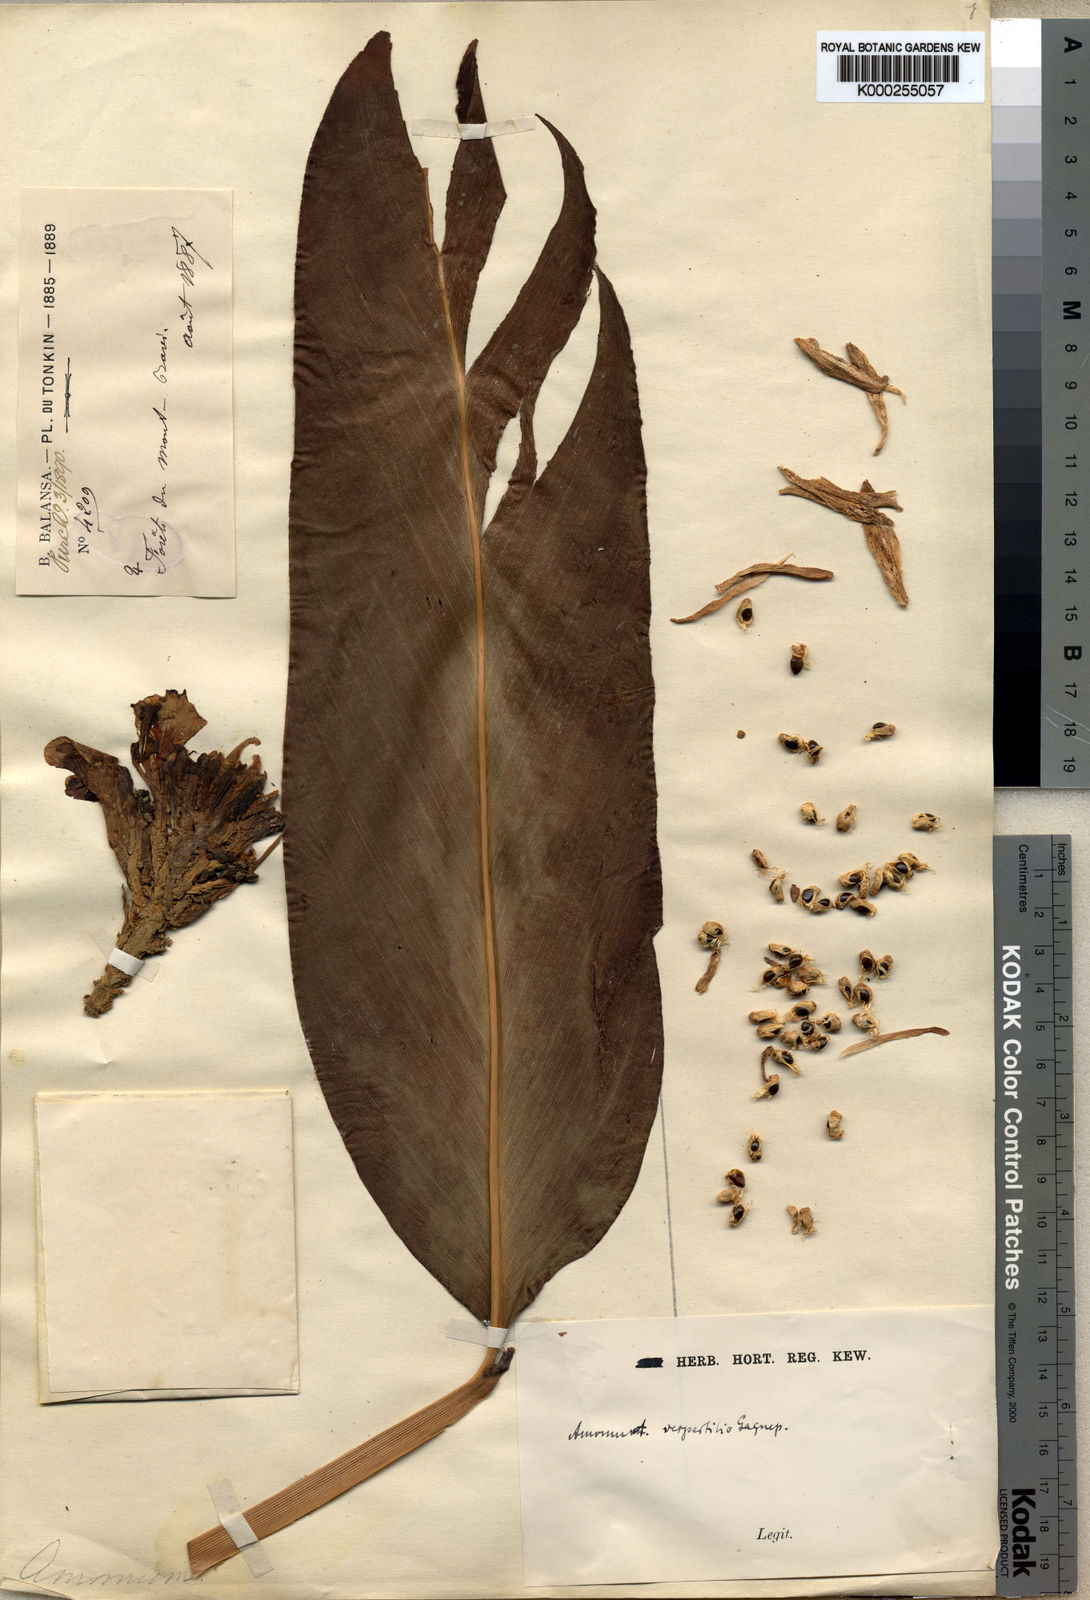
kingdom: Plantae
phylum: Tracheophyta
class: Liliopsida
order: Zingiberales
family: Zingiberaceae
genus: Meistera
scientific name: Meistera vespertilio
